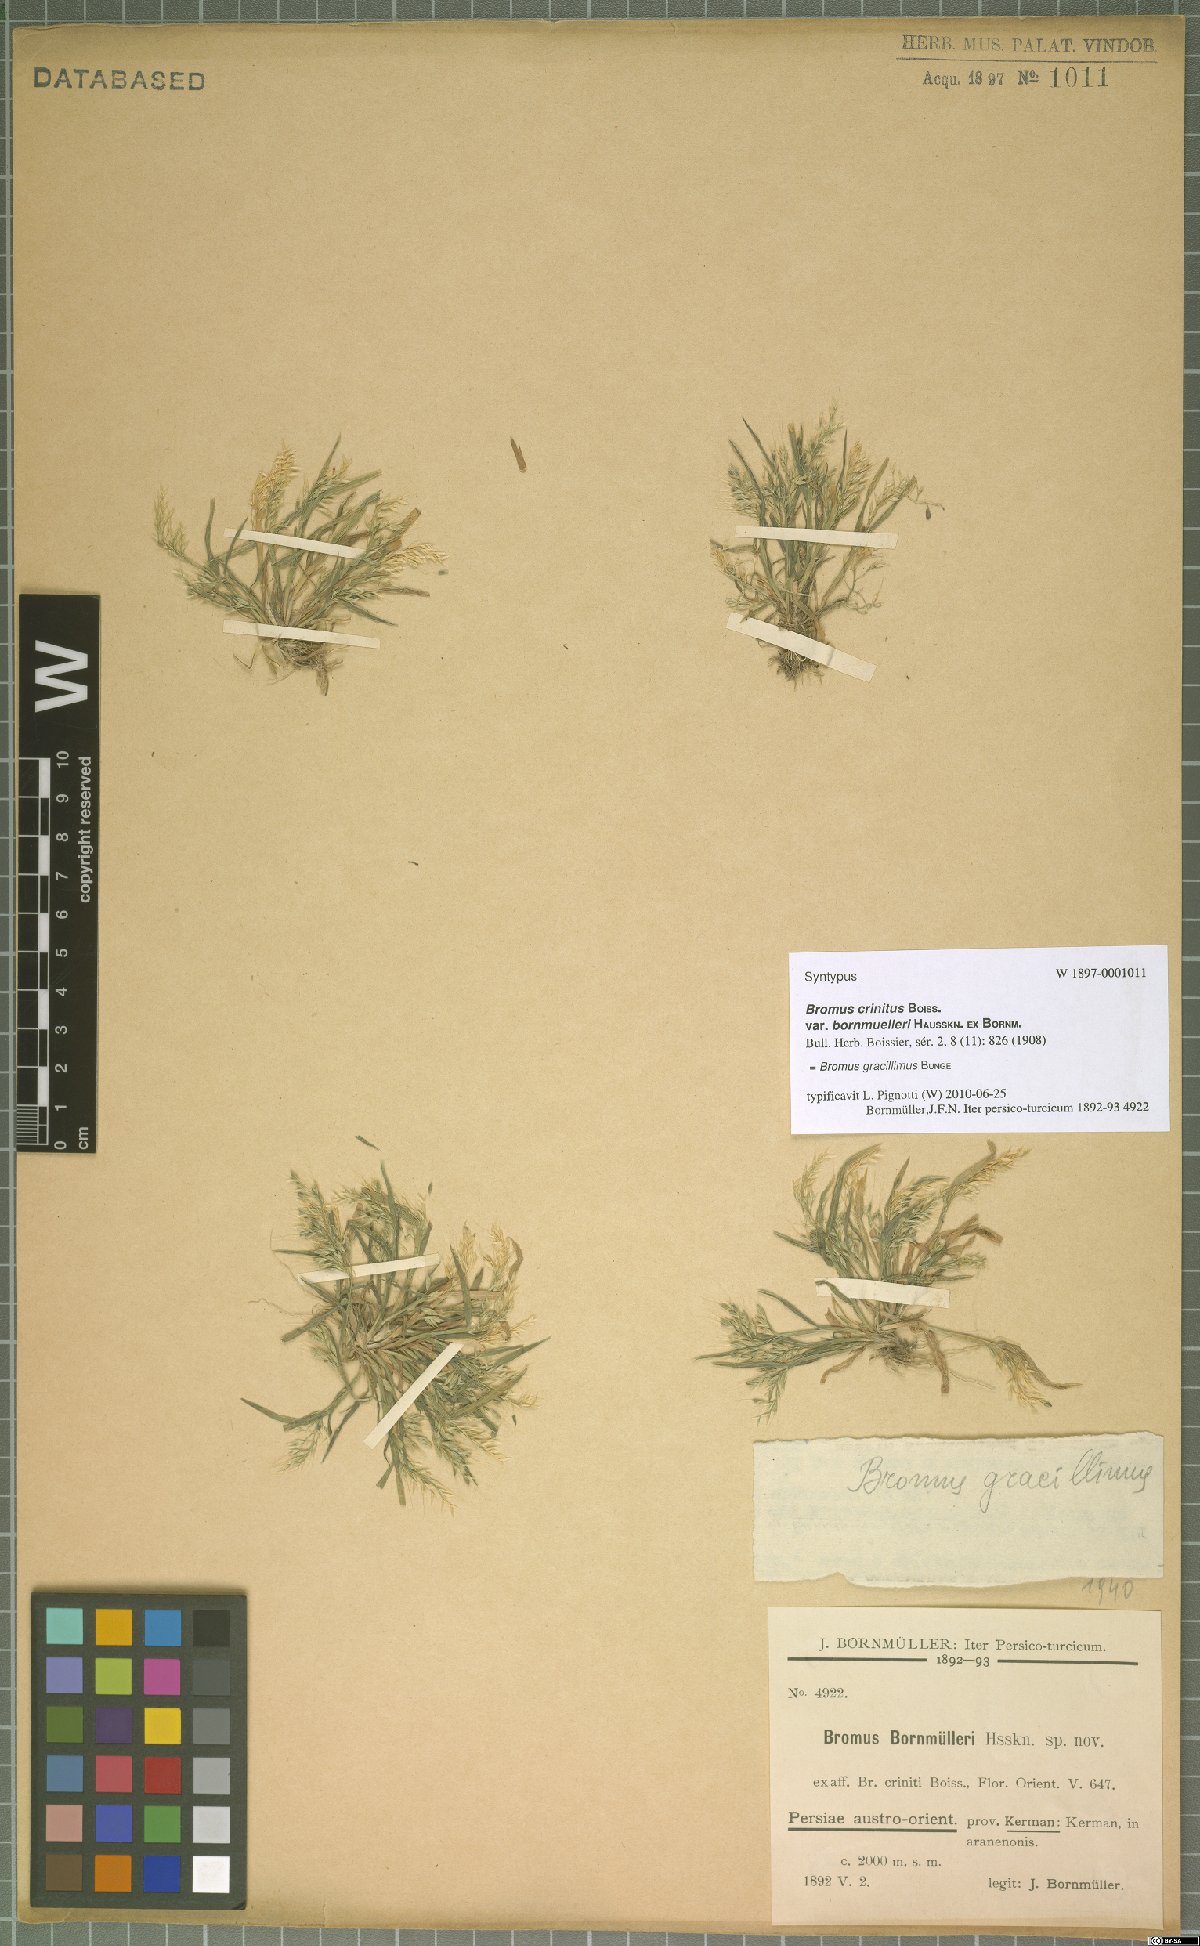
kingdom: Plantae
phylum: Tracheophyta
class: Liliopsida
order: Poales
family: Poaceae
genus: Bromus
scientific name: Bromus gracillimus
